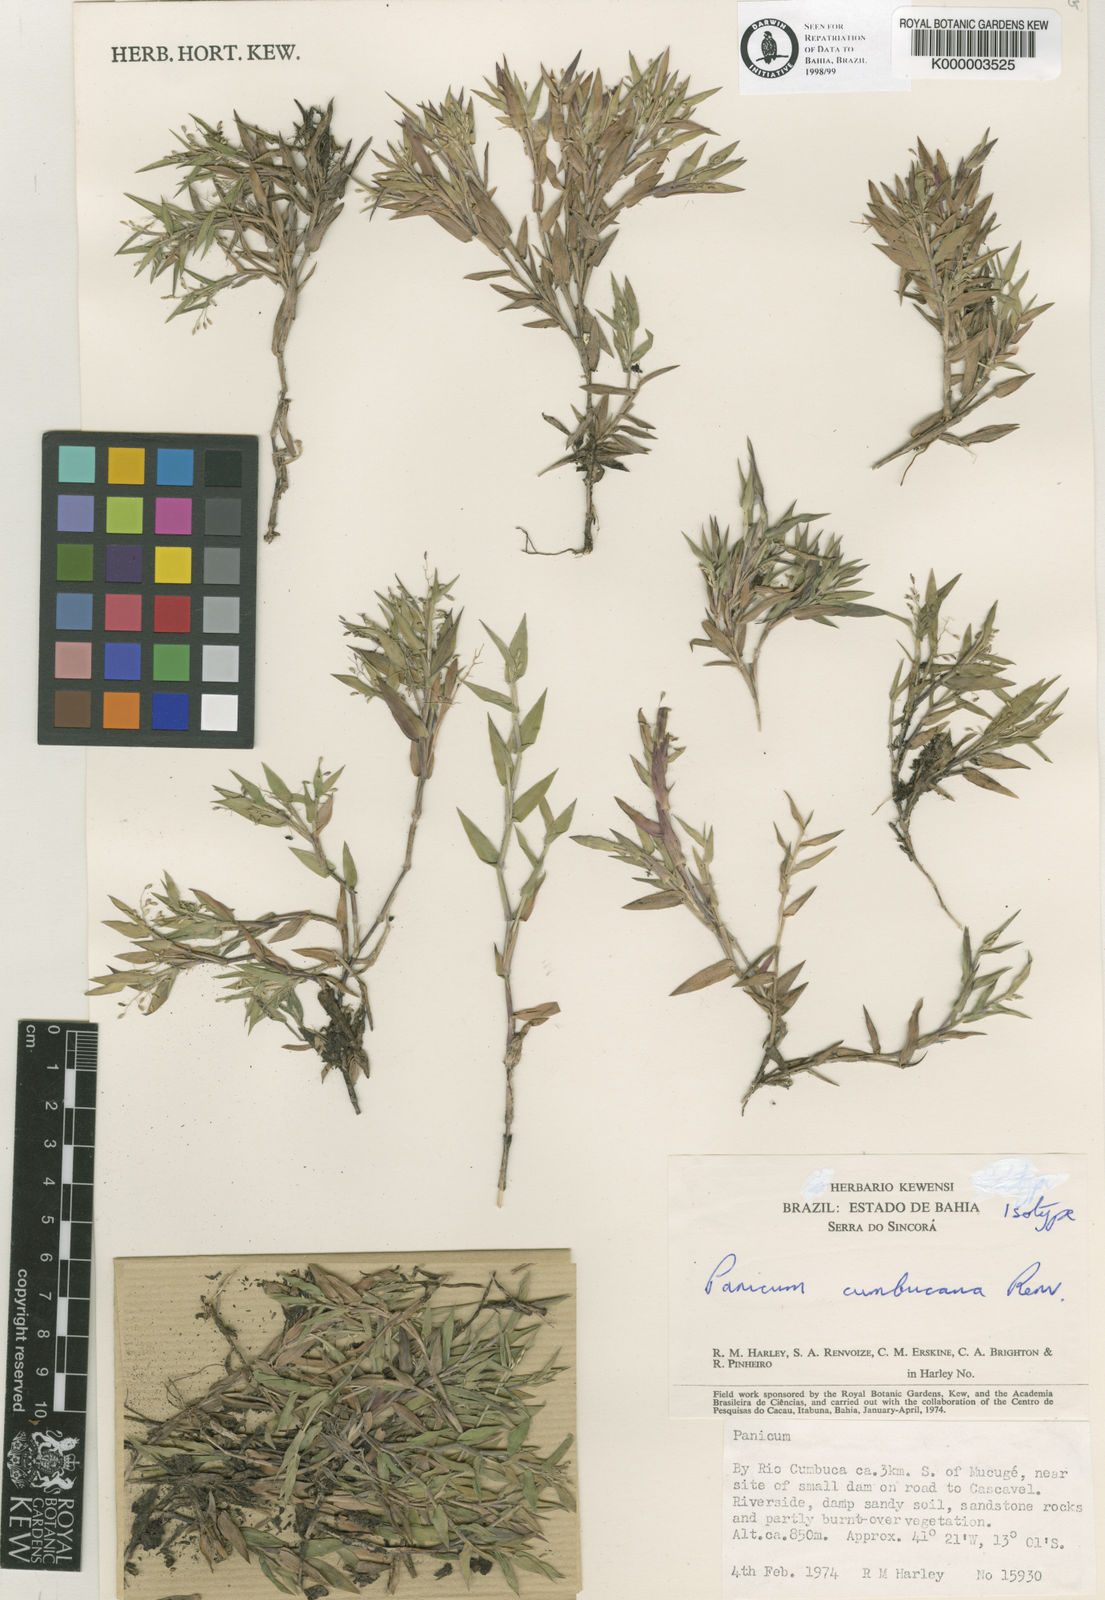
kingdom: Plantae
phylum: Tracheophyta
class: Liliopsida
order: Poales
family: Poaceae
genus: Dichanthelium
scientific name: Dichanthelium cumbucanum
